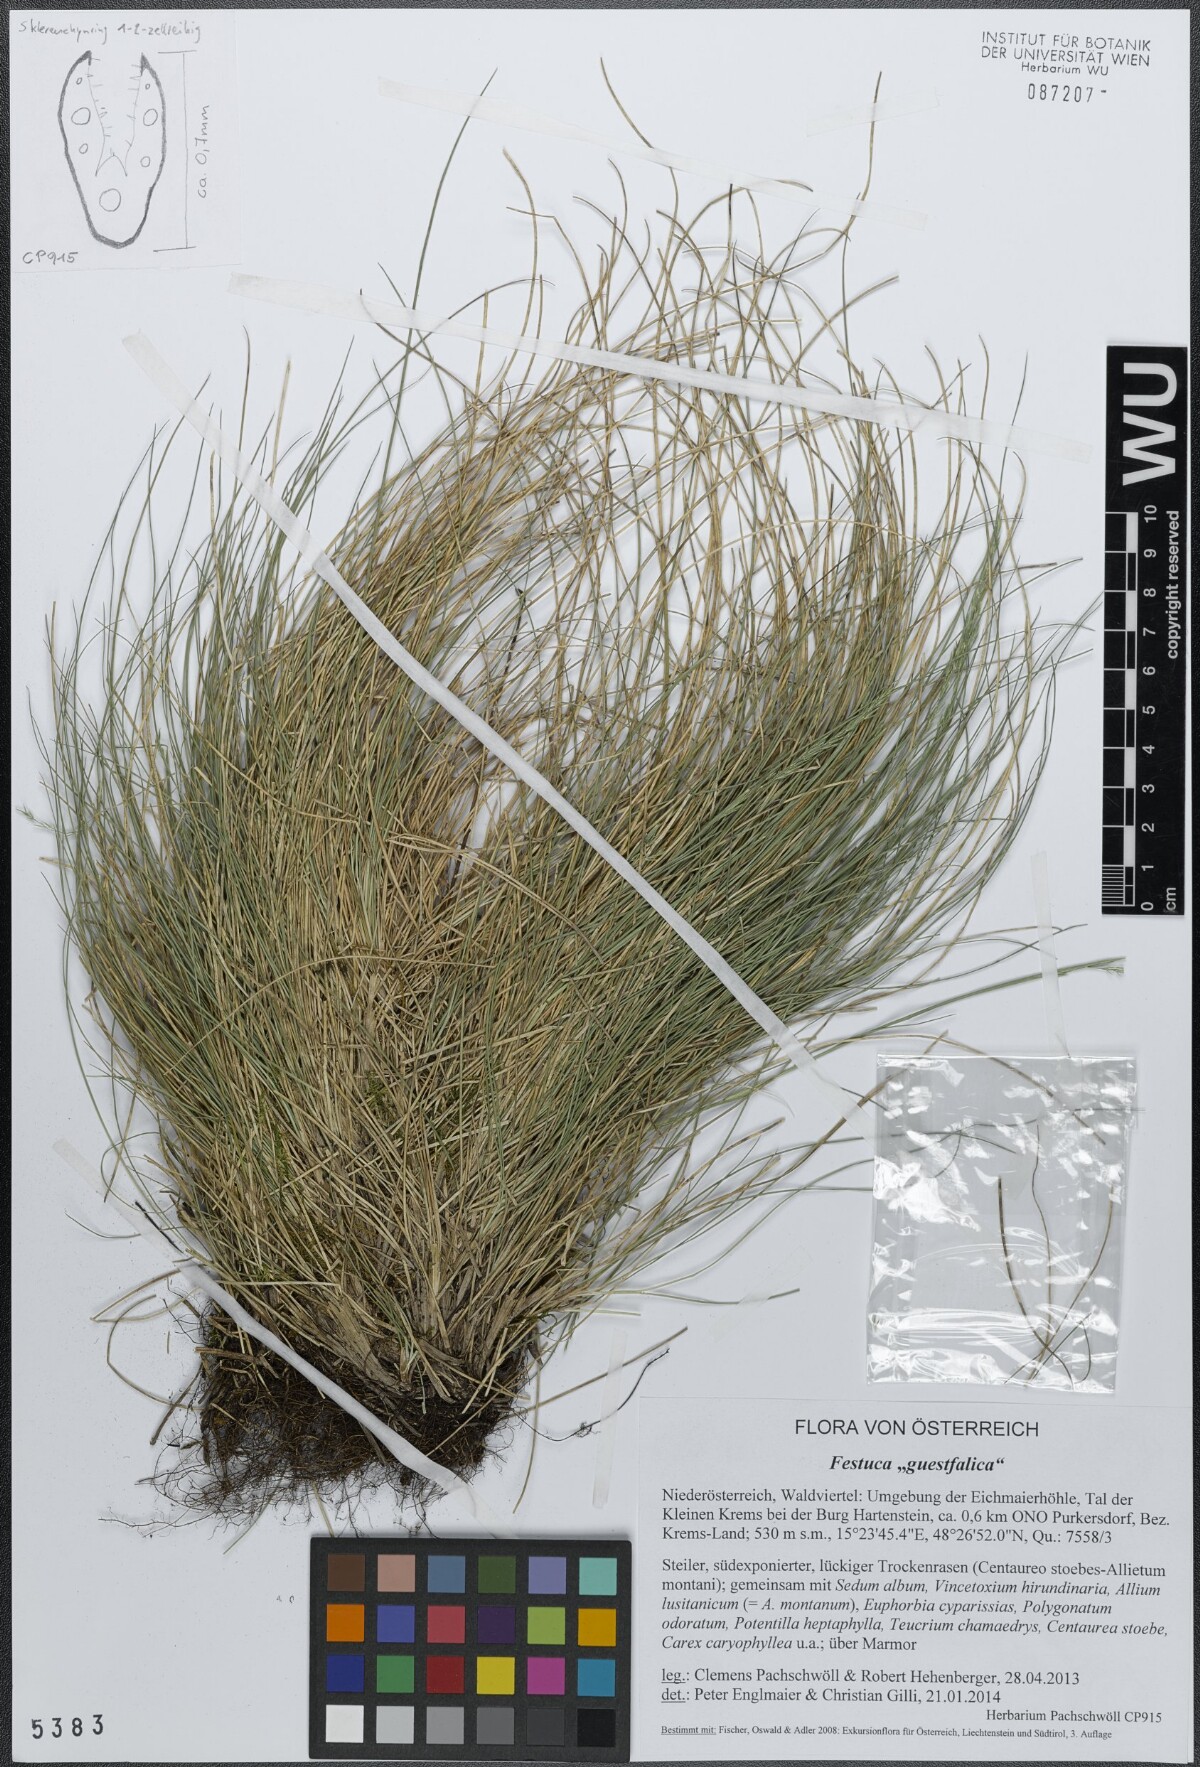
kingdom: Plantae
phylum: Tracheophyta
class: Liliopsida
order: Poales
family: Poaceae
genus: Festuca
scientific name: Festuca guestfalica
